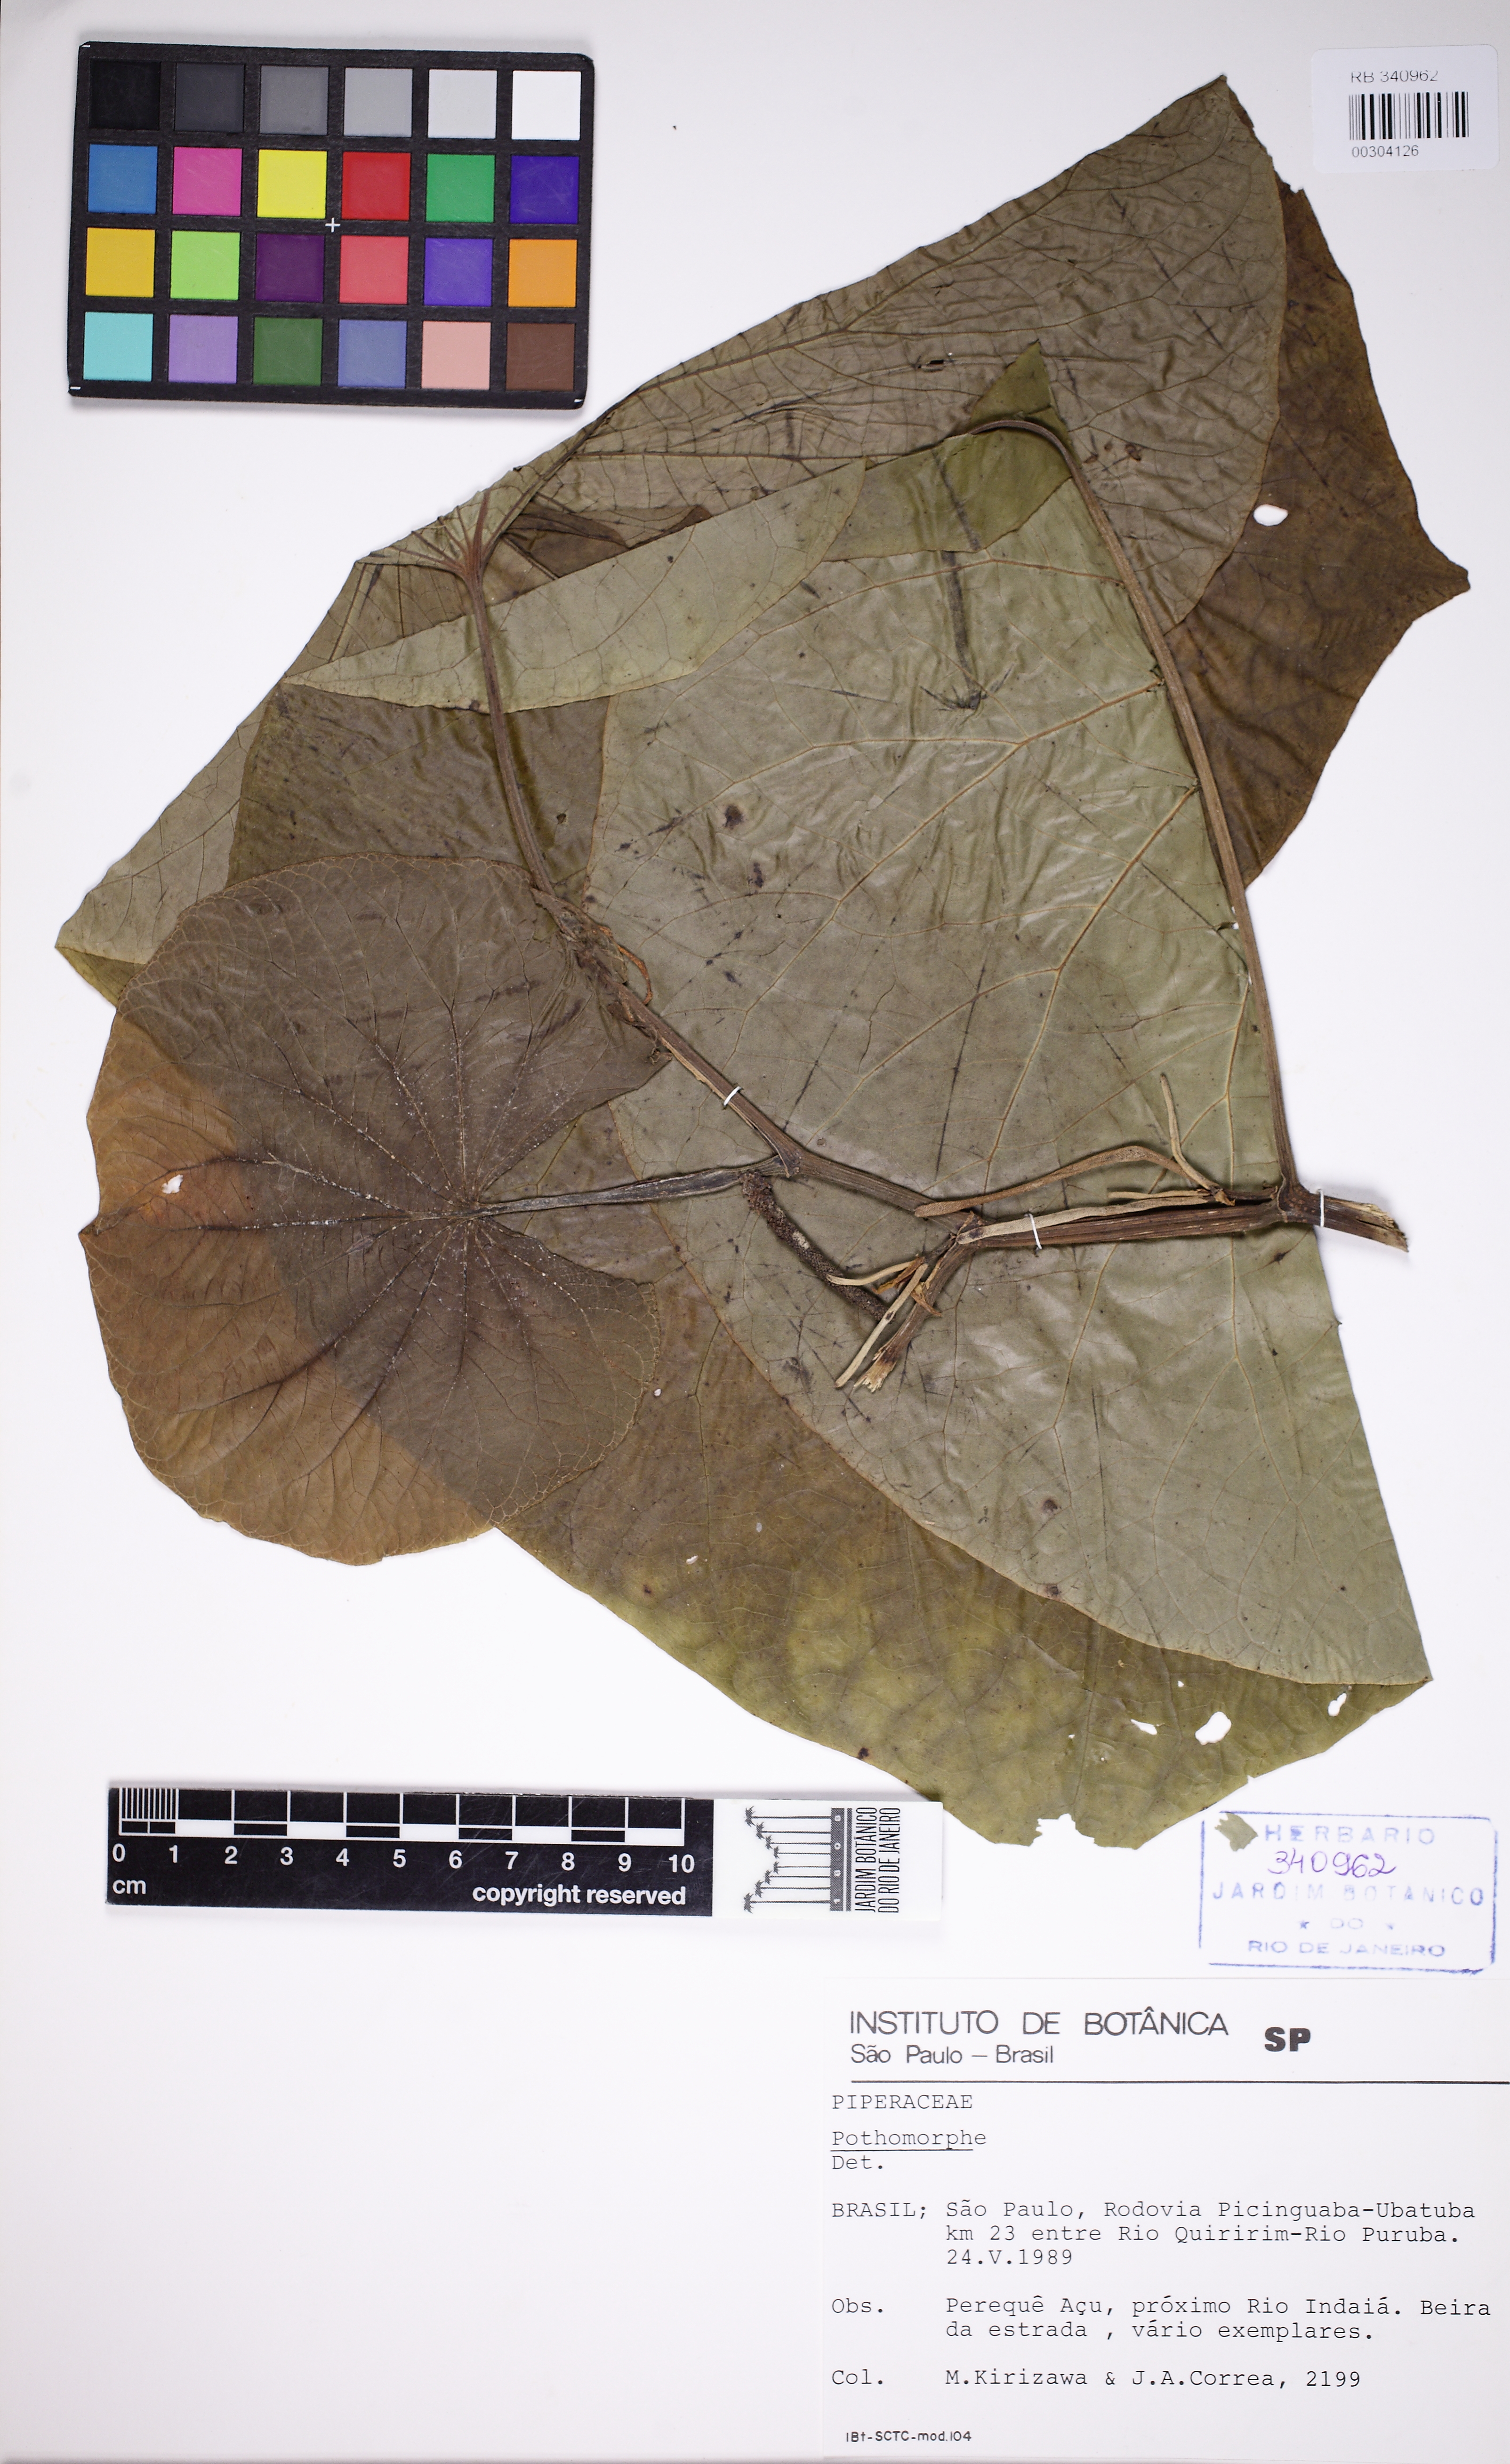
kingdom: Plantae
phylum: Tracheophyta
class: Magnoliopsida
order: Piperales
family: Piperaceae
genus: Piper
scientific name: Piper umbellatum
